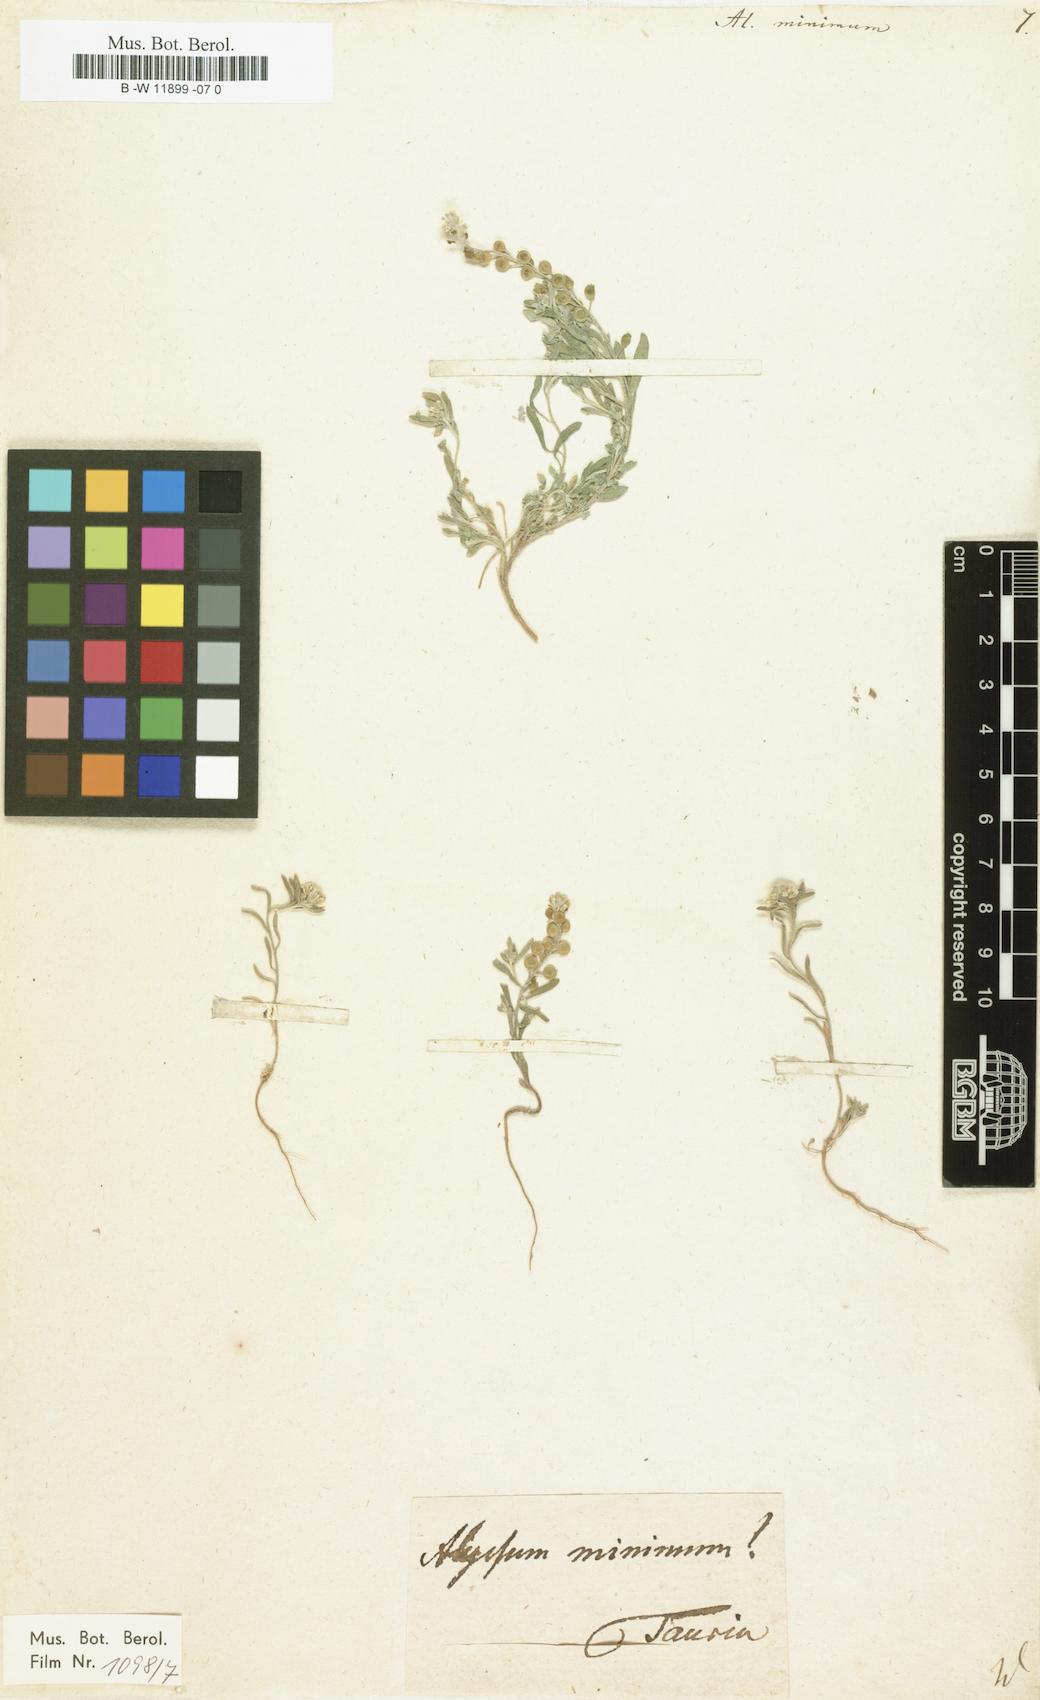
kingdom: Plantae
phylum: Tracheophyta
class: Magnoliopsida
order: Brassicales
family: Brassicaceae
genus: Alyssum
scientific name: Alyssum turkestanicum
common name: Desert alyssum
